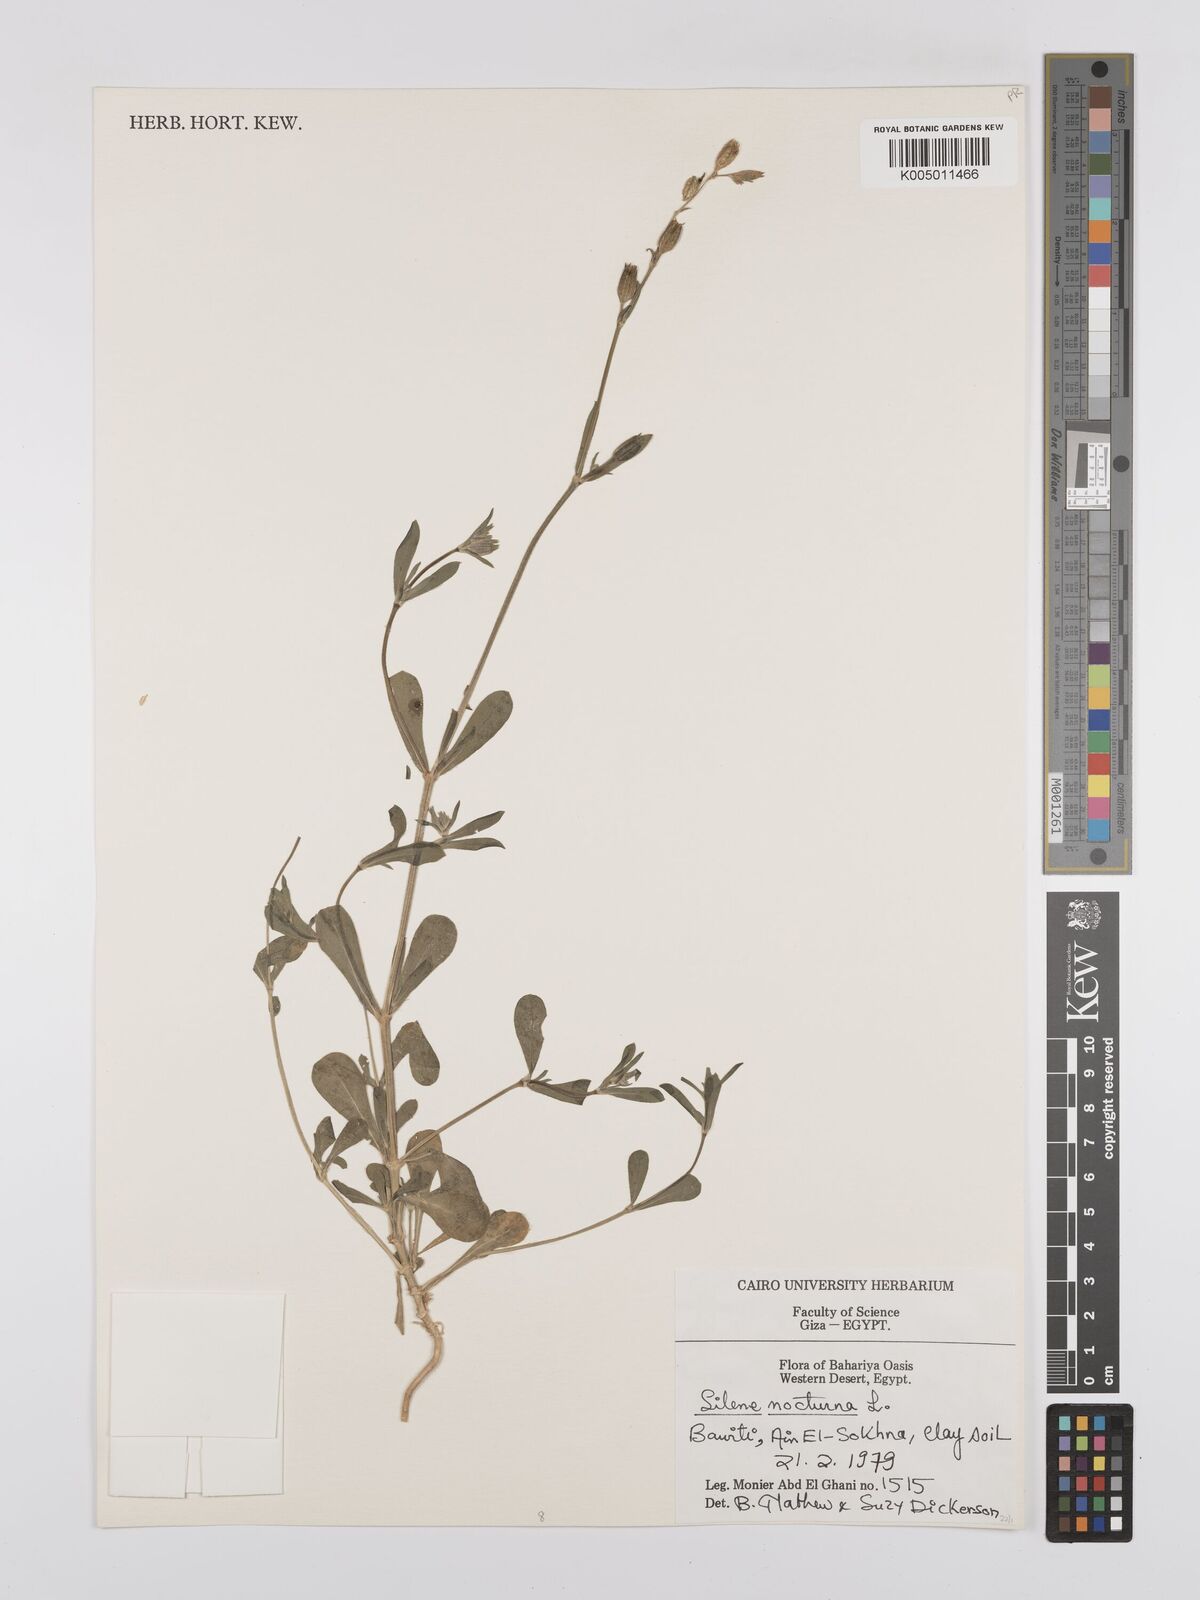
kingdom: Plantae
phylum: Tracheophyta
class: Magnoliopsida
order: Caryophyllales
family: Caryophyllaceae
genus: Silene
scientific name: Silene nocturna
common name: Mediterranean catchfly
